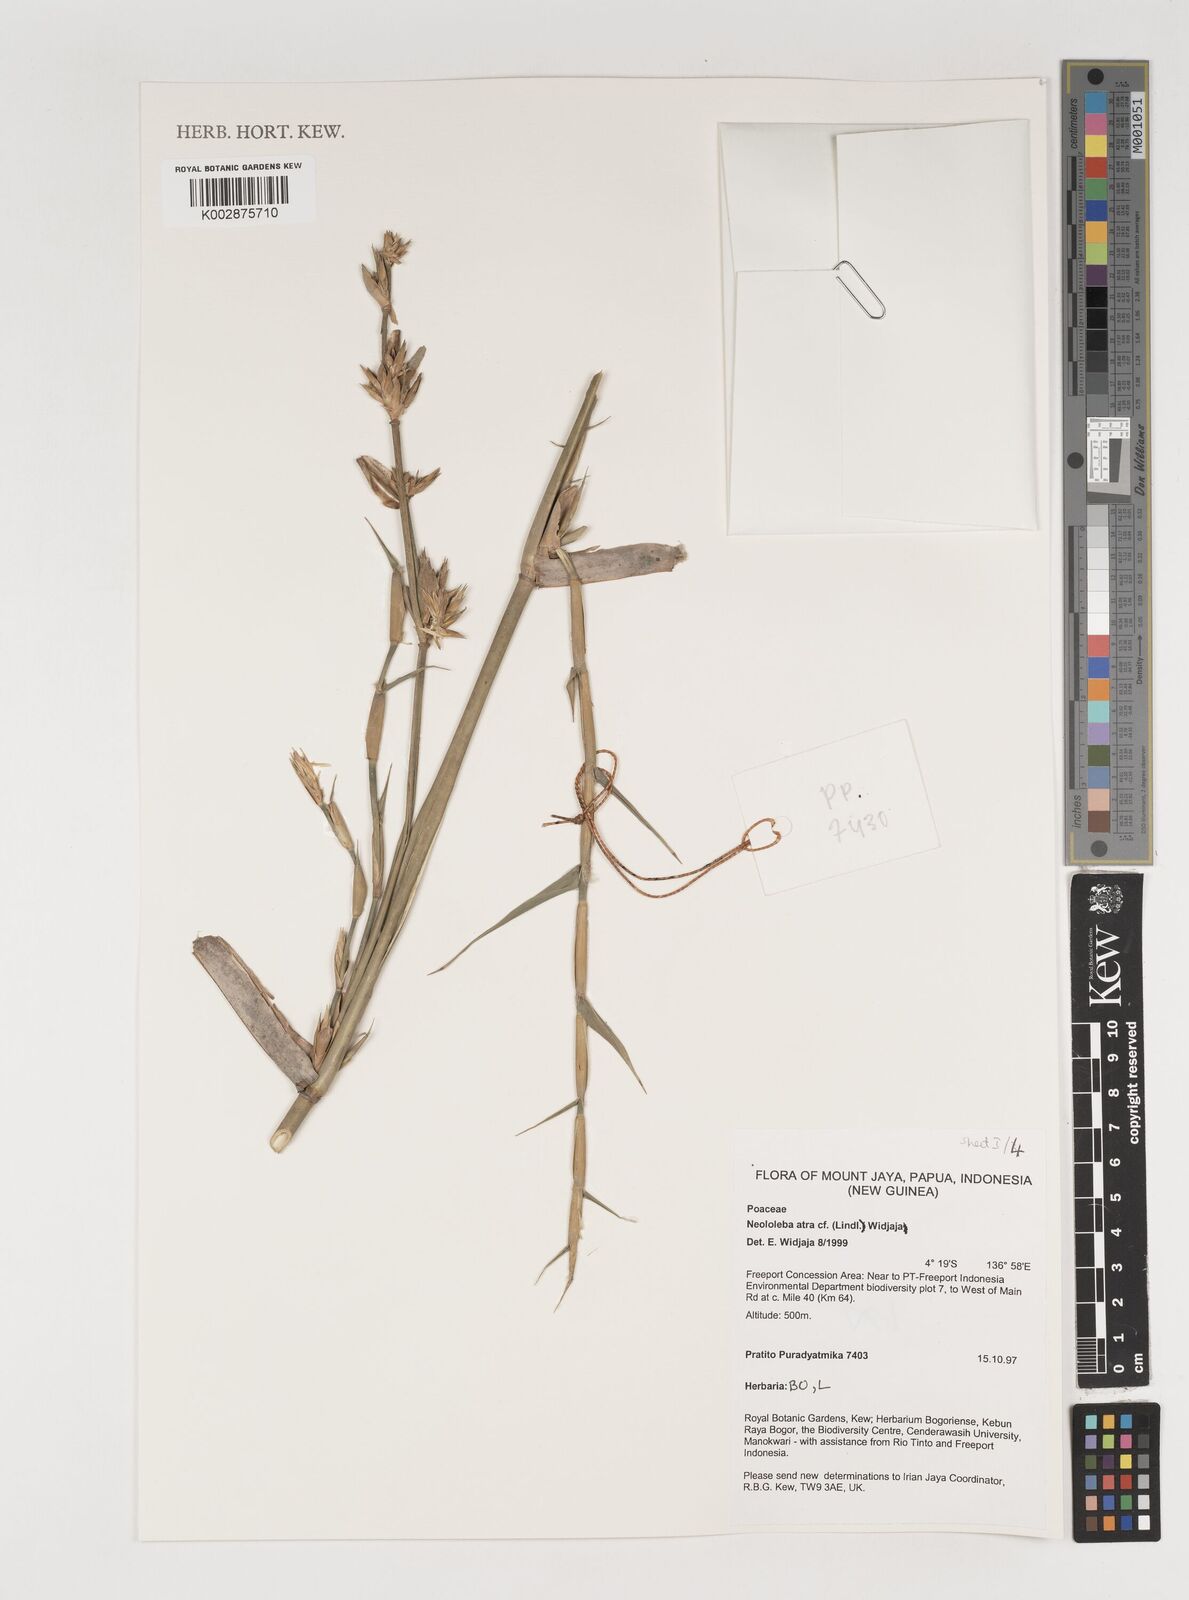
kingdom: Plantae
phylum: Tracheophyta
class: Liliopsida
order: Poales
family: Poaceae
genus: Neololeba
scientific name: Neololeba atra
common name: Cape bamboo
